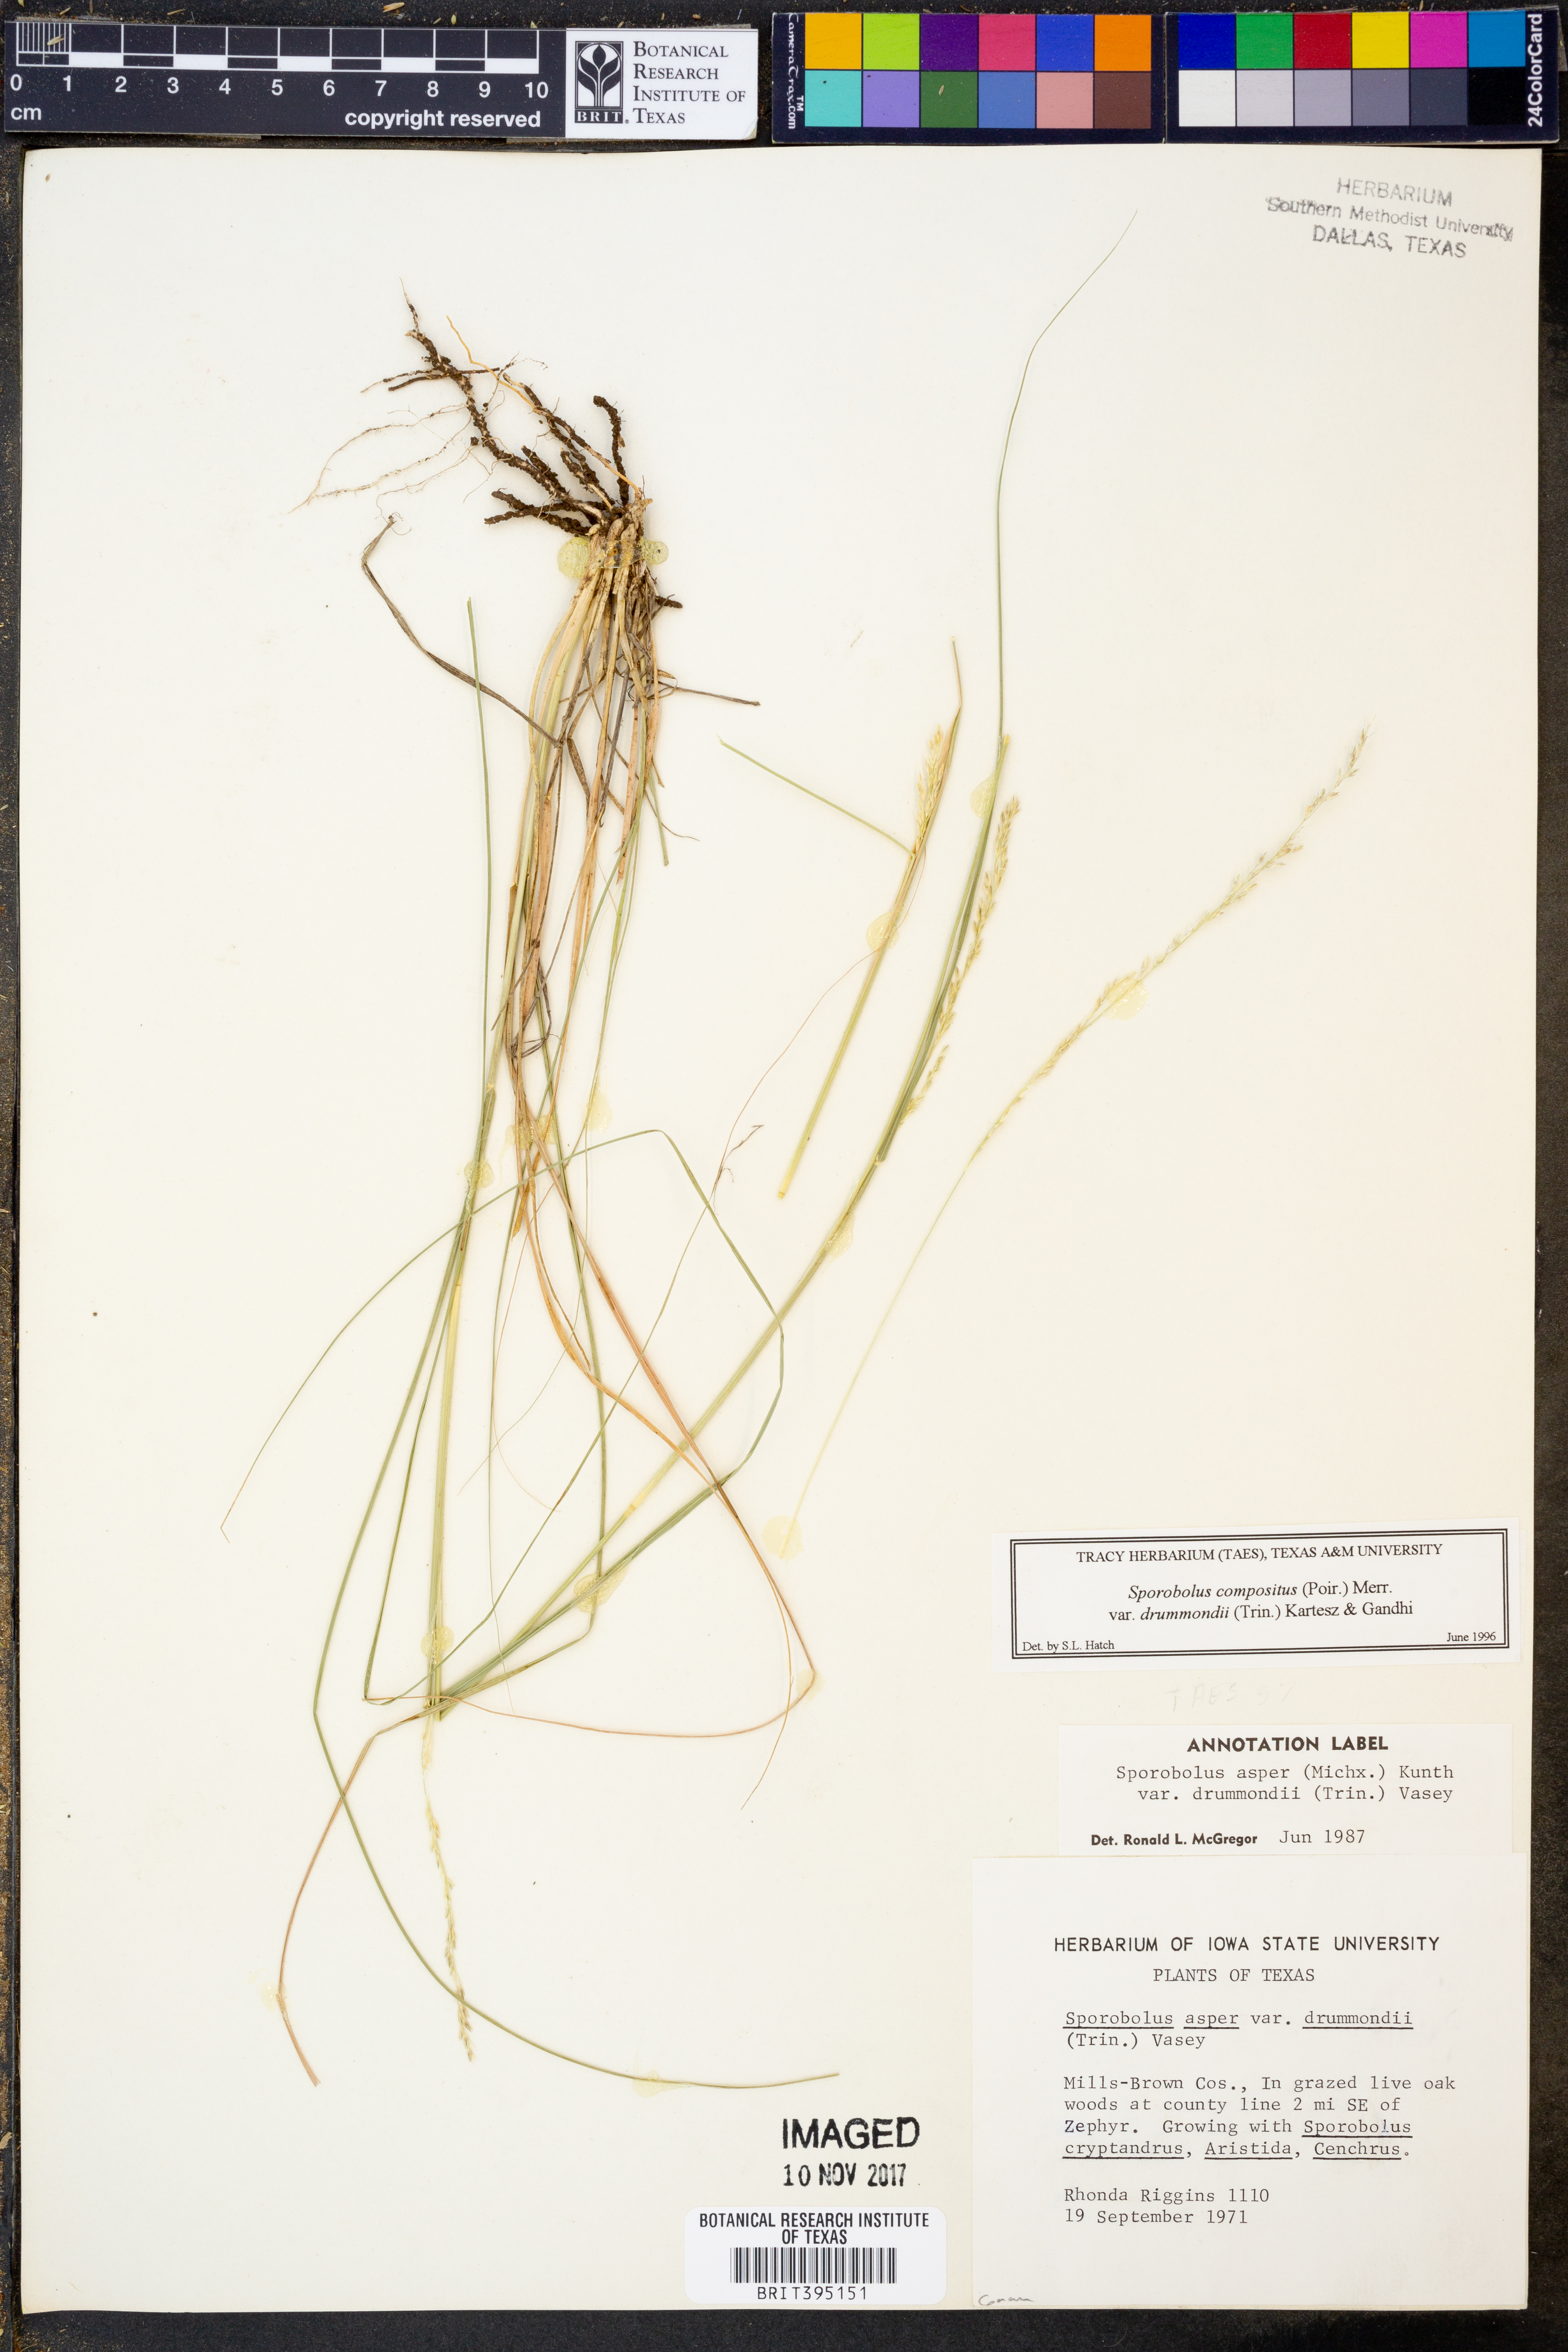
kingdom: Plantae
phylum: Tracheophyta
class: Liliopsida
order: Poales
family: Poaceae
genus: Sporobolus
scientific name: Sporobolus compositus
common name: Rough dropseed
